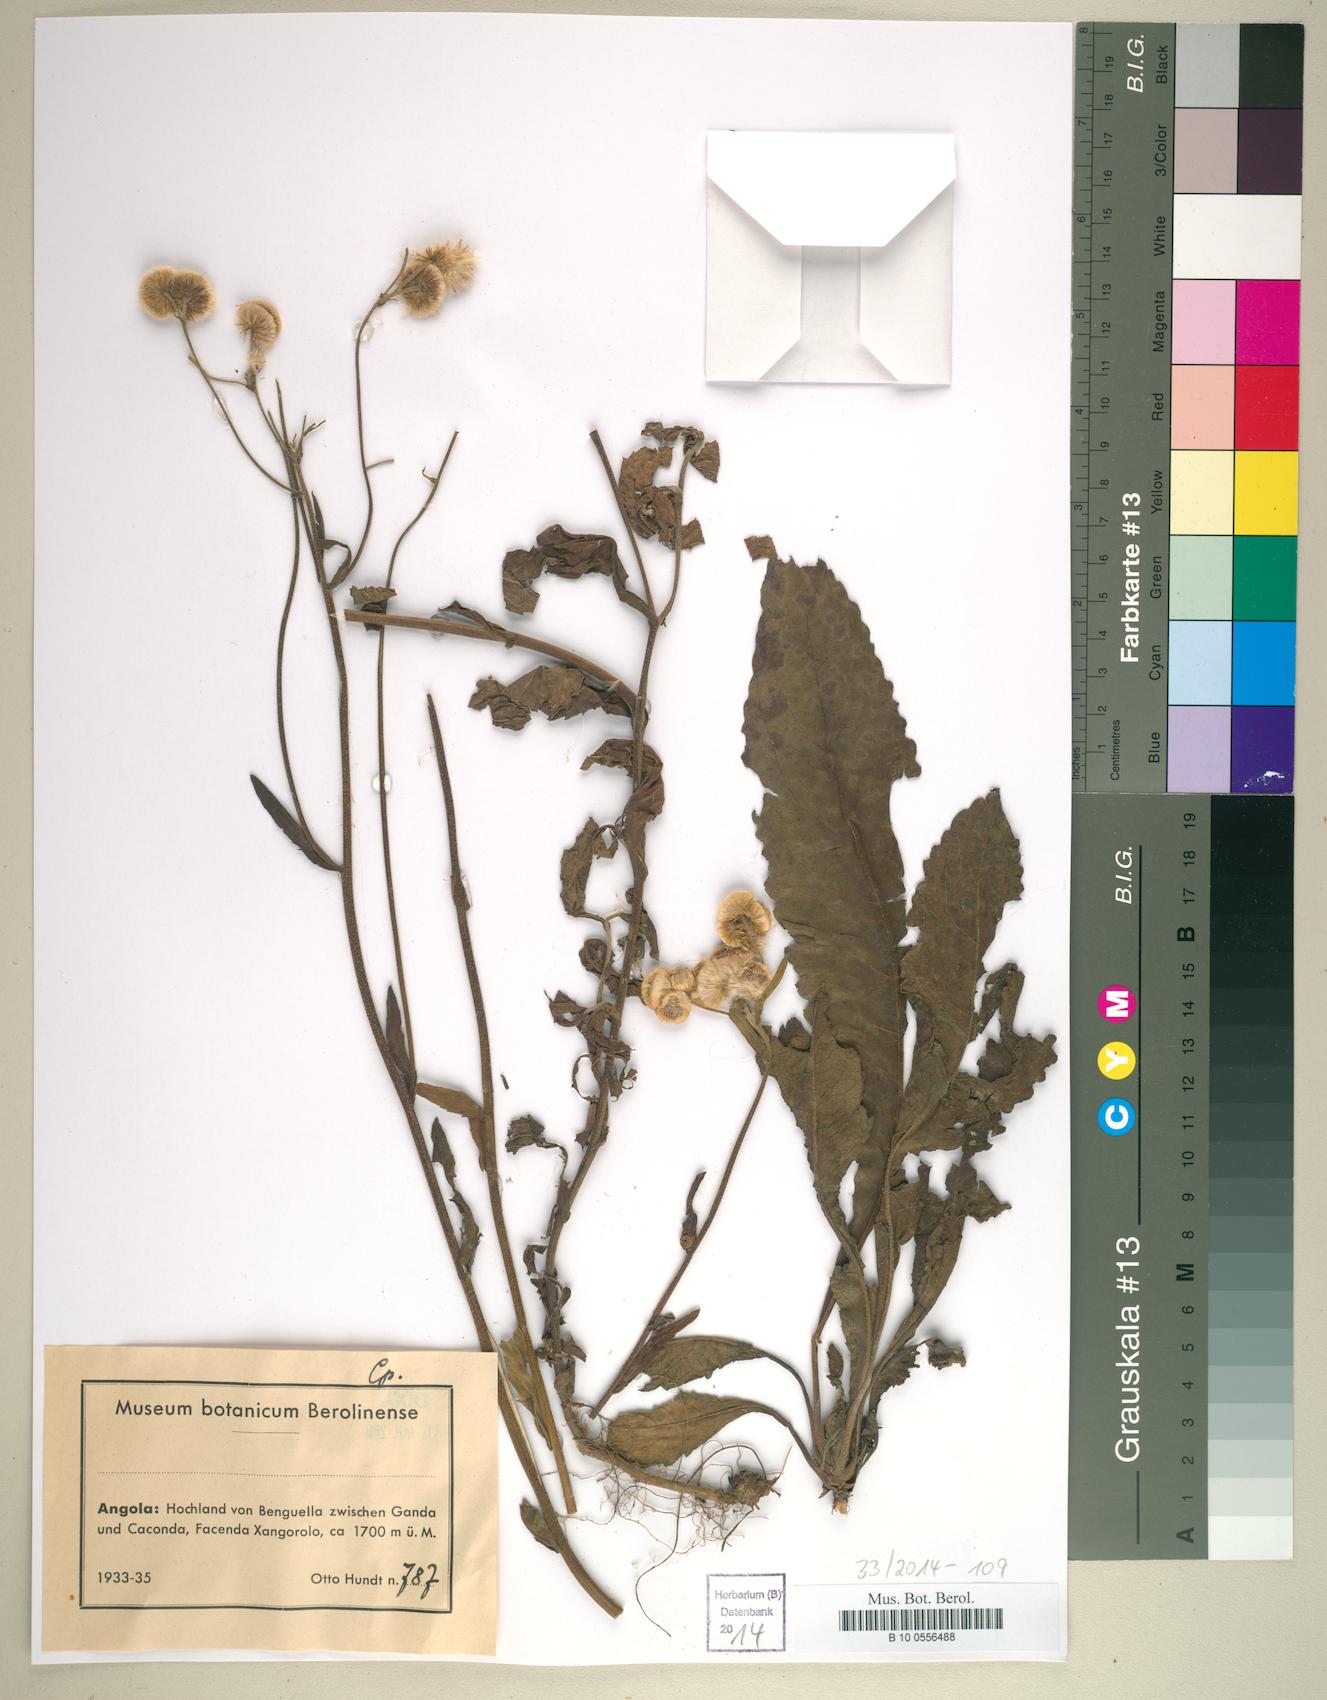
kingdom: Plantae
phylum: Tracheophyta
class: Magnoliopsida
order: Asterales
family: Asteraceae
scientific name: Asteraceae
